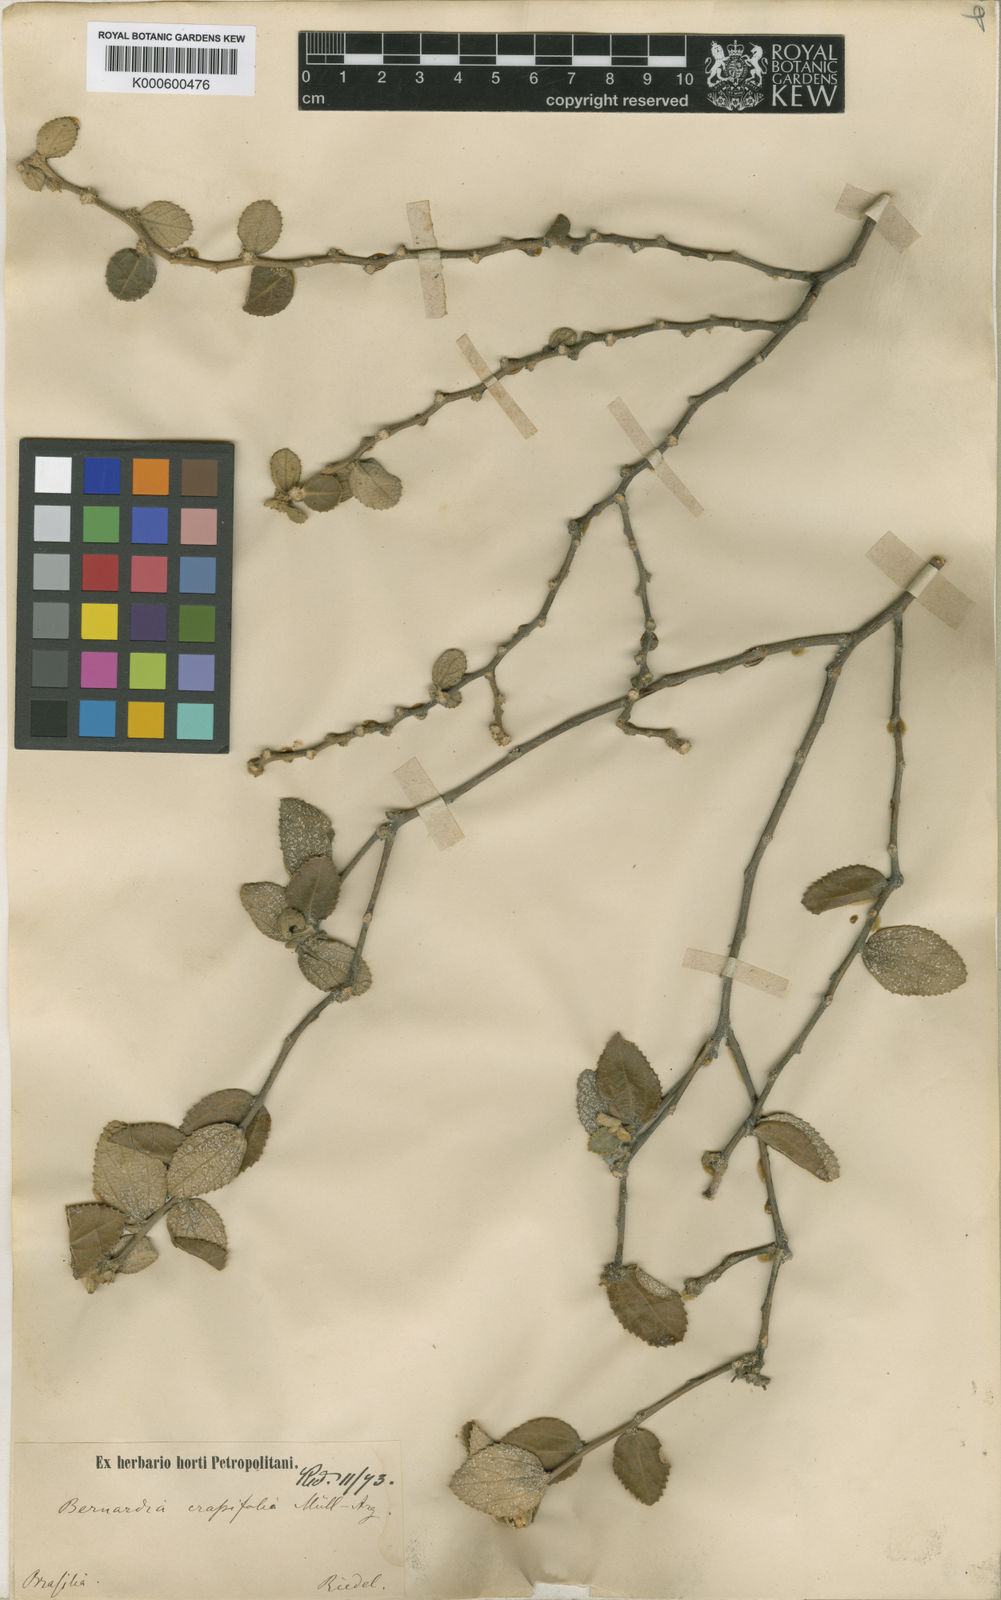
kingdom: Plantae
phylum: Tracheophyta
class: Magnoliopsida
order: Malpighiales
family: Euphorbiaceae
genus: Bernardia
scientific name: Bernardia
